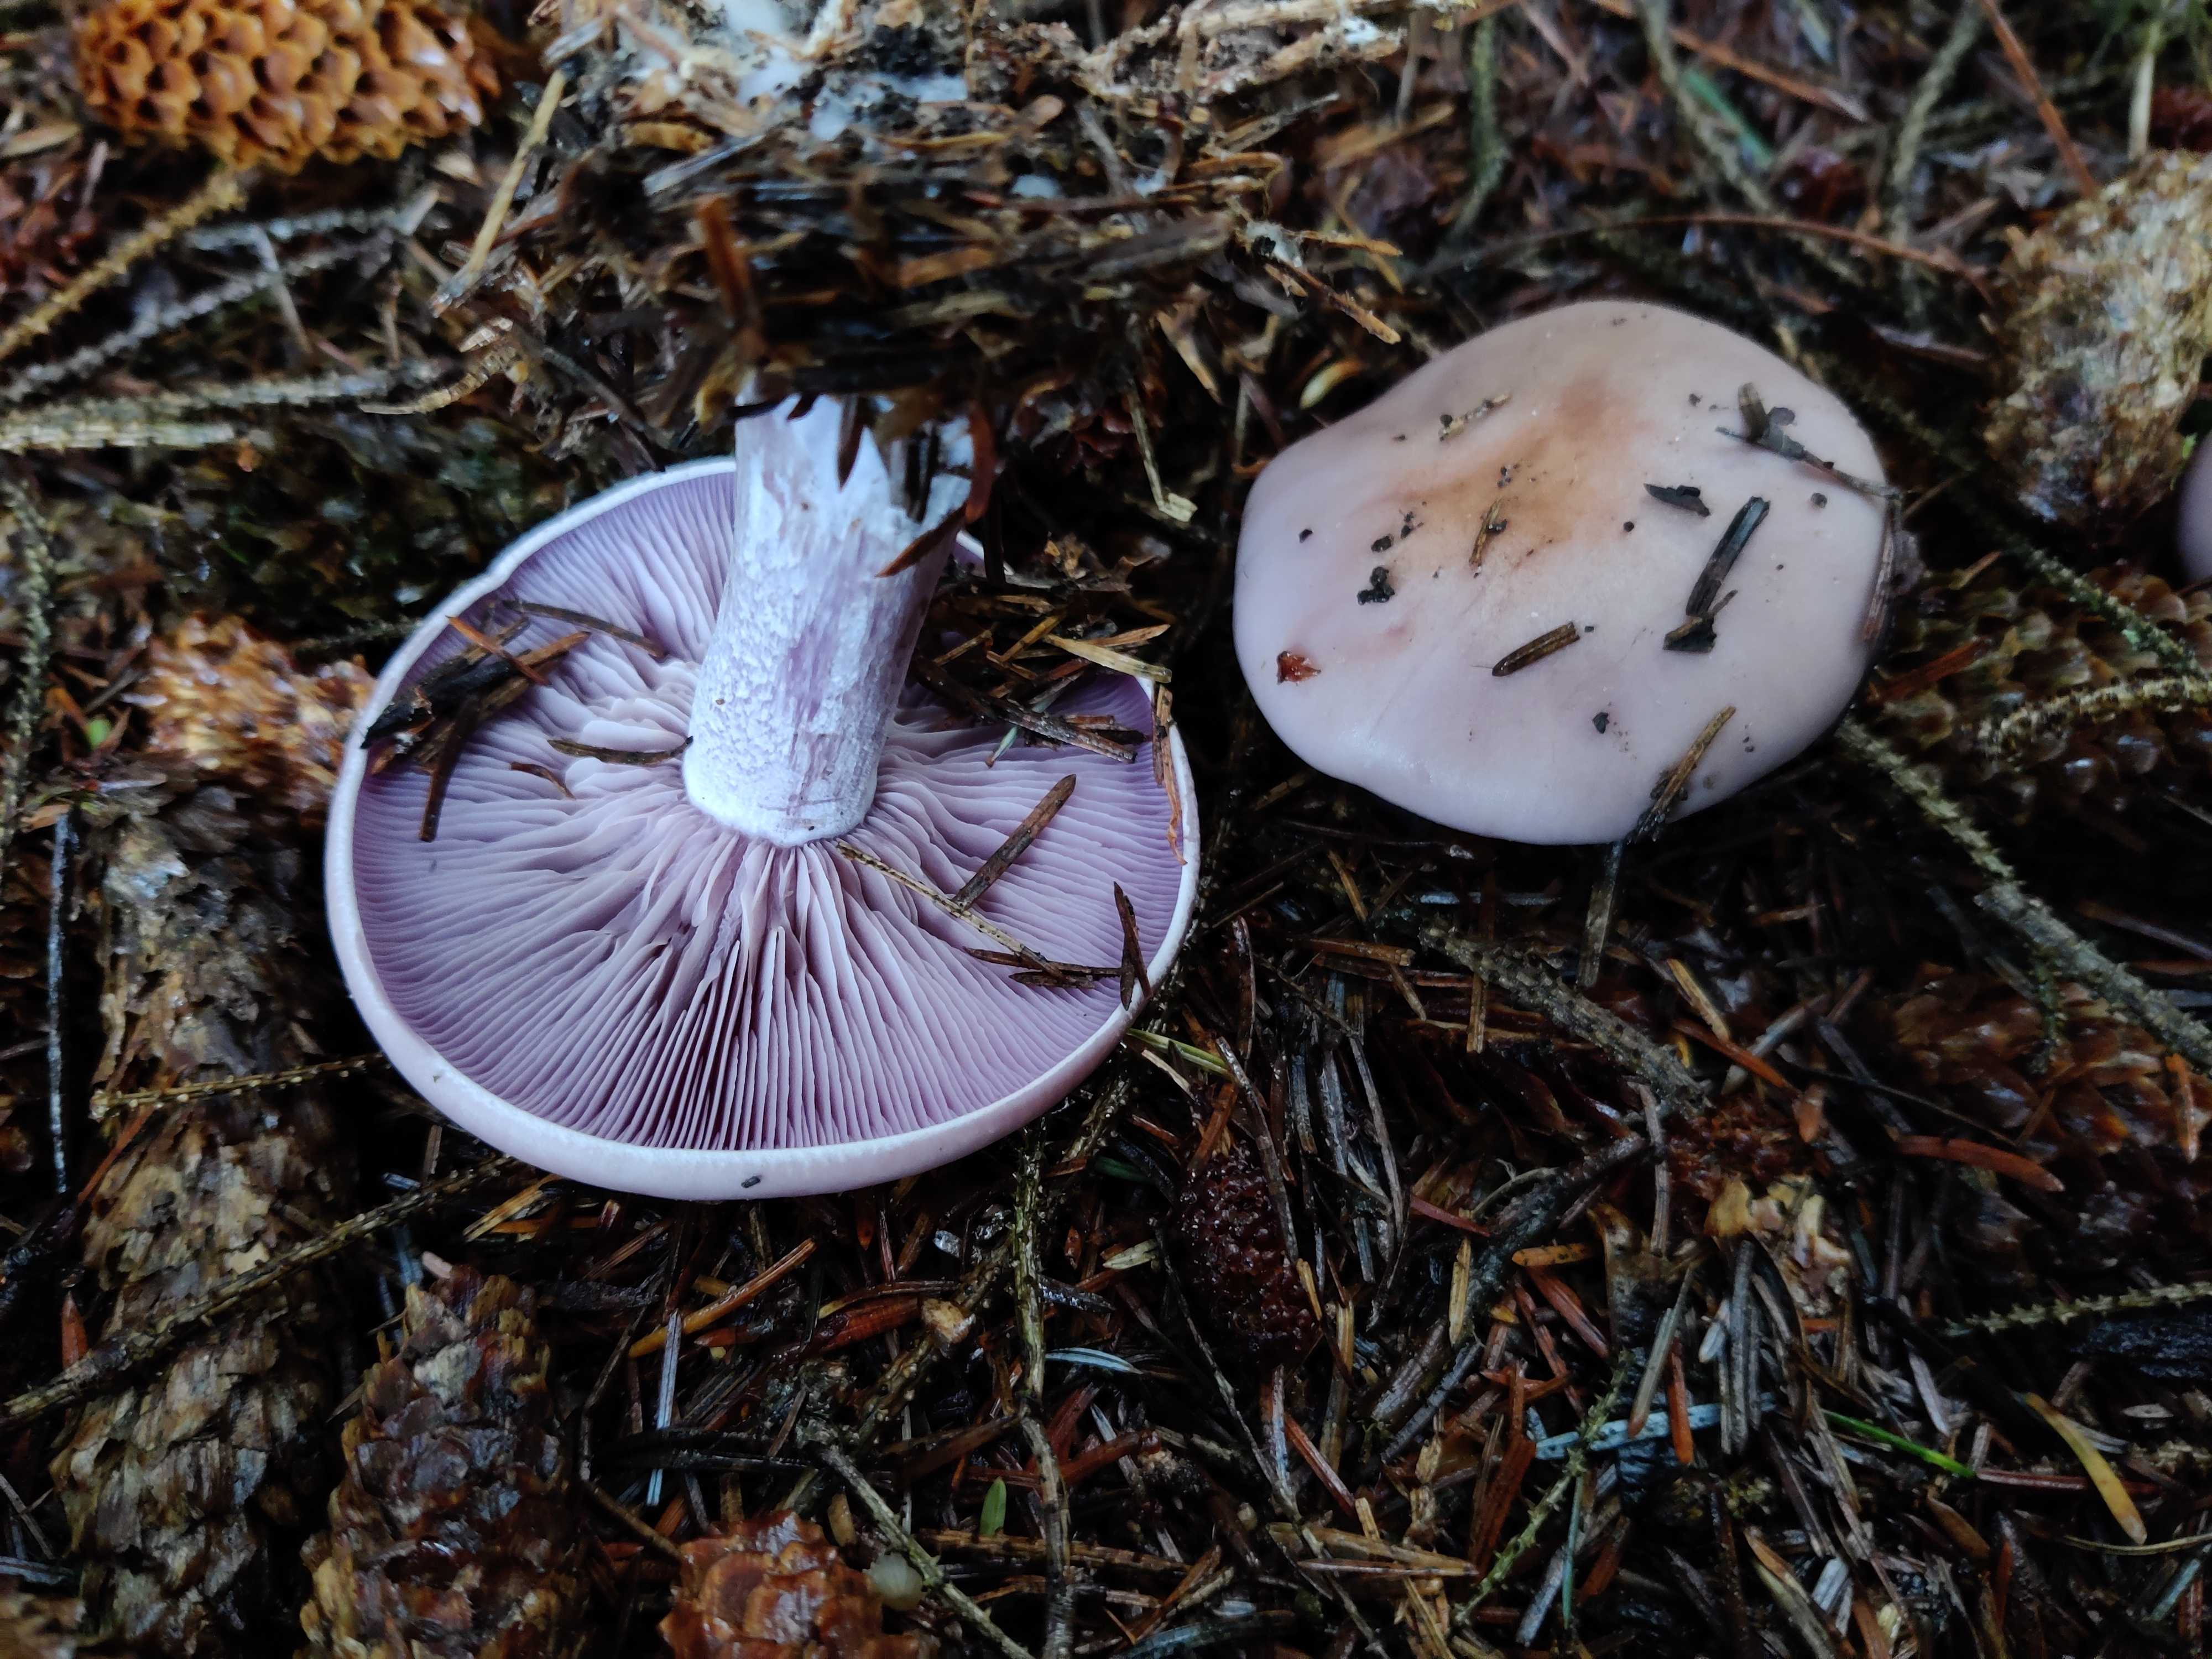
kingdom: Fungi
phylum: Basidiomycota
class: Agaricomycetes
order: Agaricales
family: Tricholomataceae
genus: Lepista
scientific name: Lepista nuda
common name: violet hekseringshat
